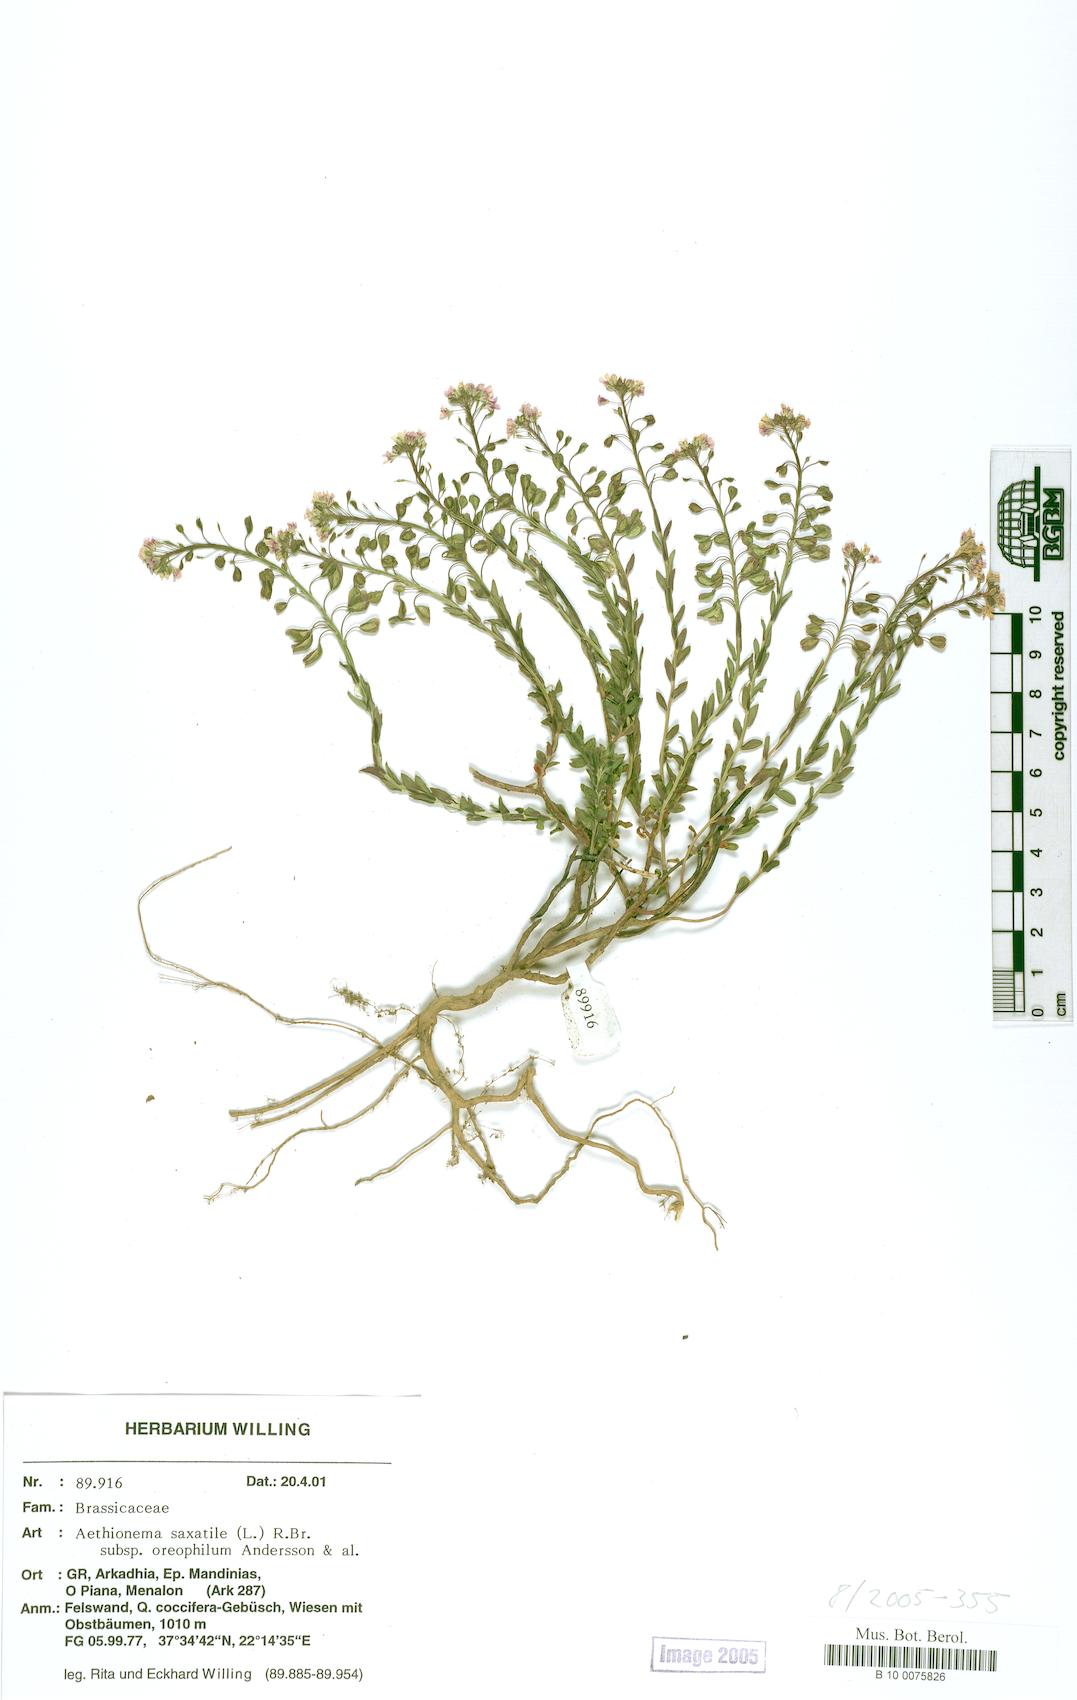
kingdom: Plantae
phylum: Tracheophyta
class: Magnoliopsida
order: Brassicales
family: Brassicaceae
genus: Aethionema
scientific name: Aethionema saxatile
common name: Burnt candytuft
